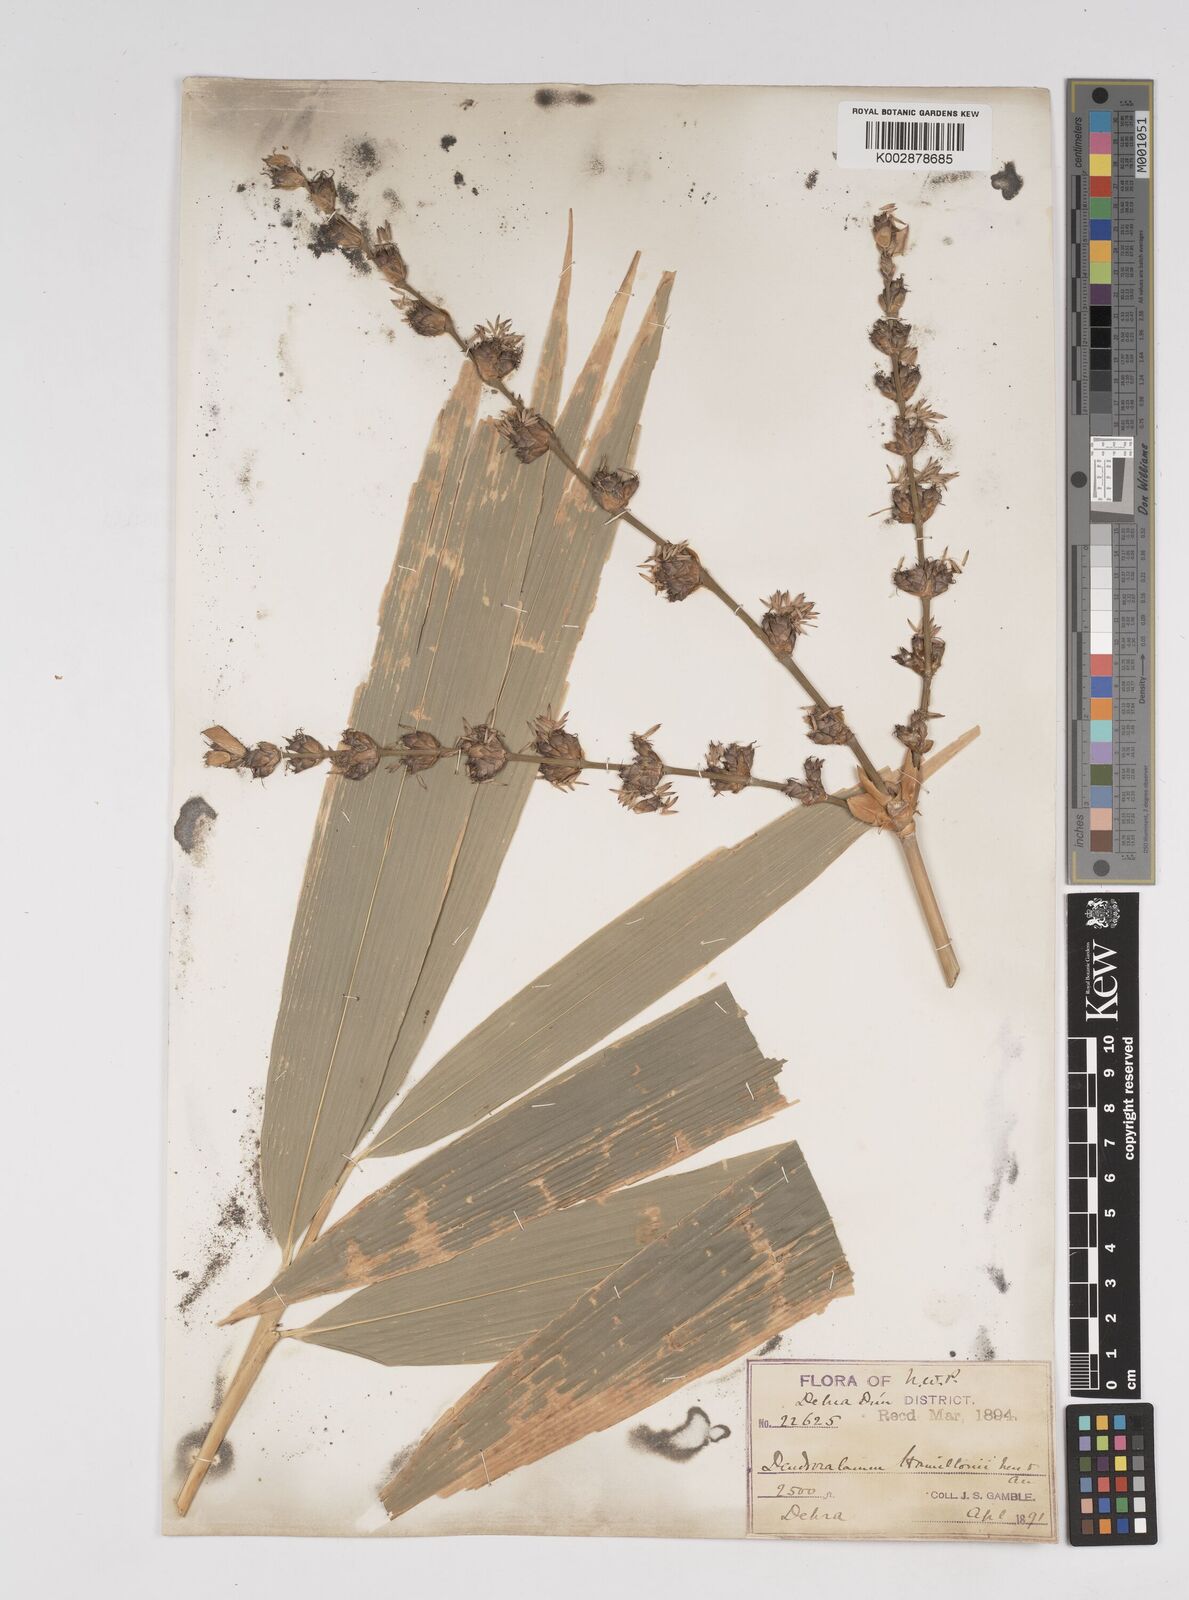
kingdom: Plantae
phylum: Tracheophyta
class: Liliopsida
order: Poales
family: Poaceae
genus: Dendrocalamus
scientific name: Dendrocalamus hamiltonii
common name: Tama bamboo
